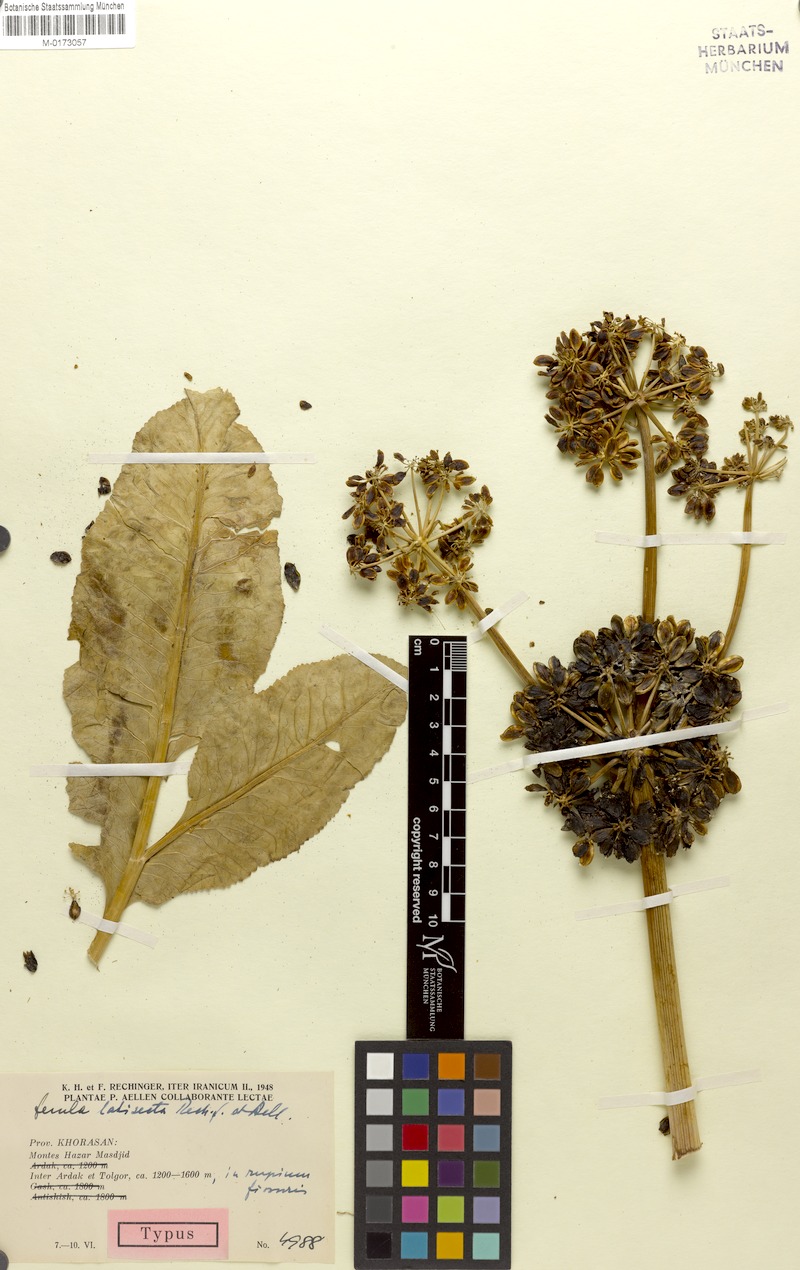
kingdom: Plantae
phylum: Tracheophyta
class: Magnoliopsida
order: Apiales
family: Apiaceae
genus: Ferula
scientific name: Ferula latisecta
